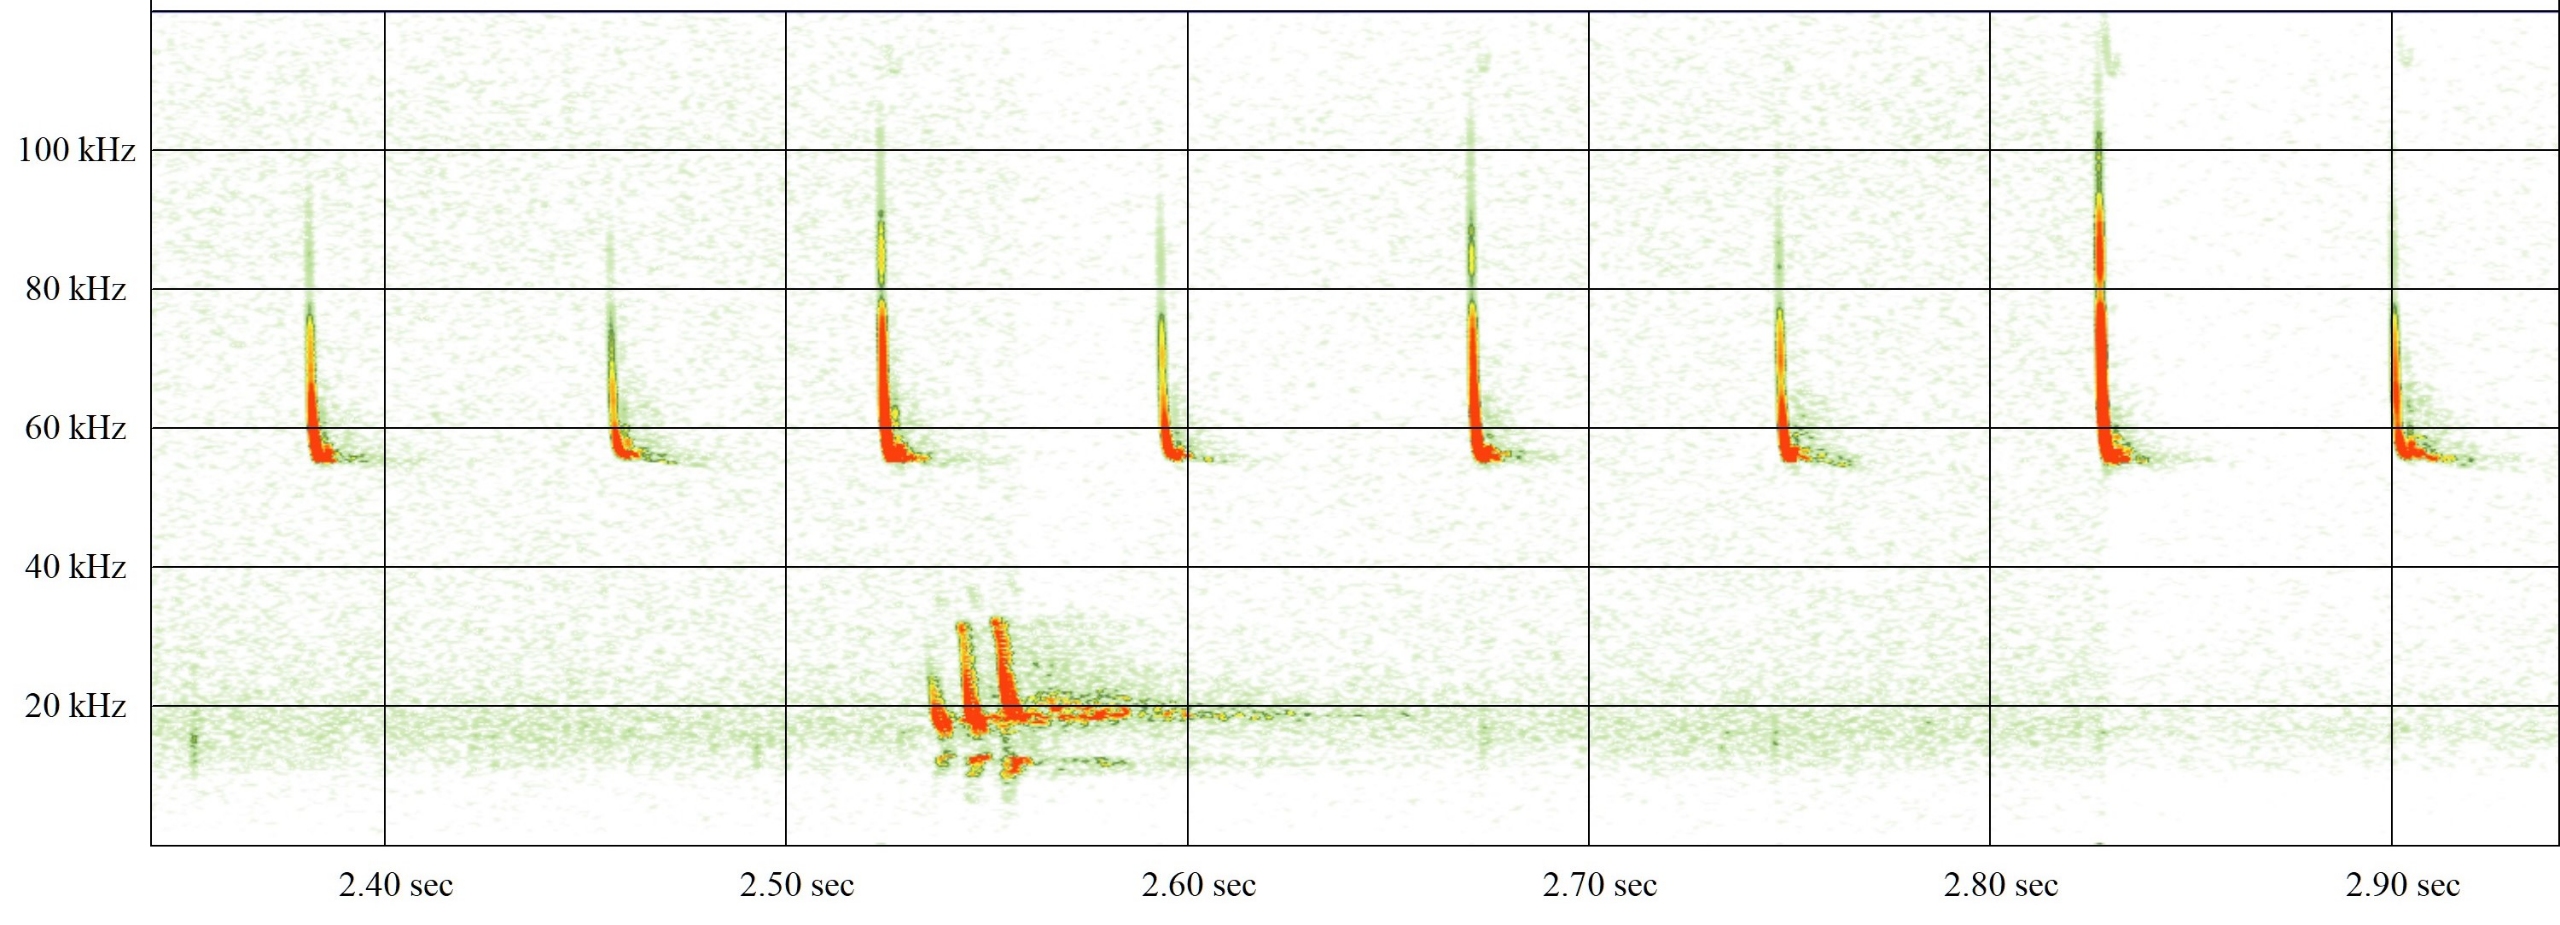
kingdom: Animalia
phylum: Chordata
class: Mammalia
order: Chiroptera
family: Vespertilionidae
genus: Pipistrellus
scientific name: Pipistrellus pygmaeus
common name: Dværgflagermus
